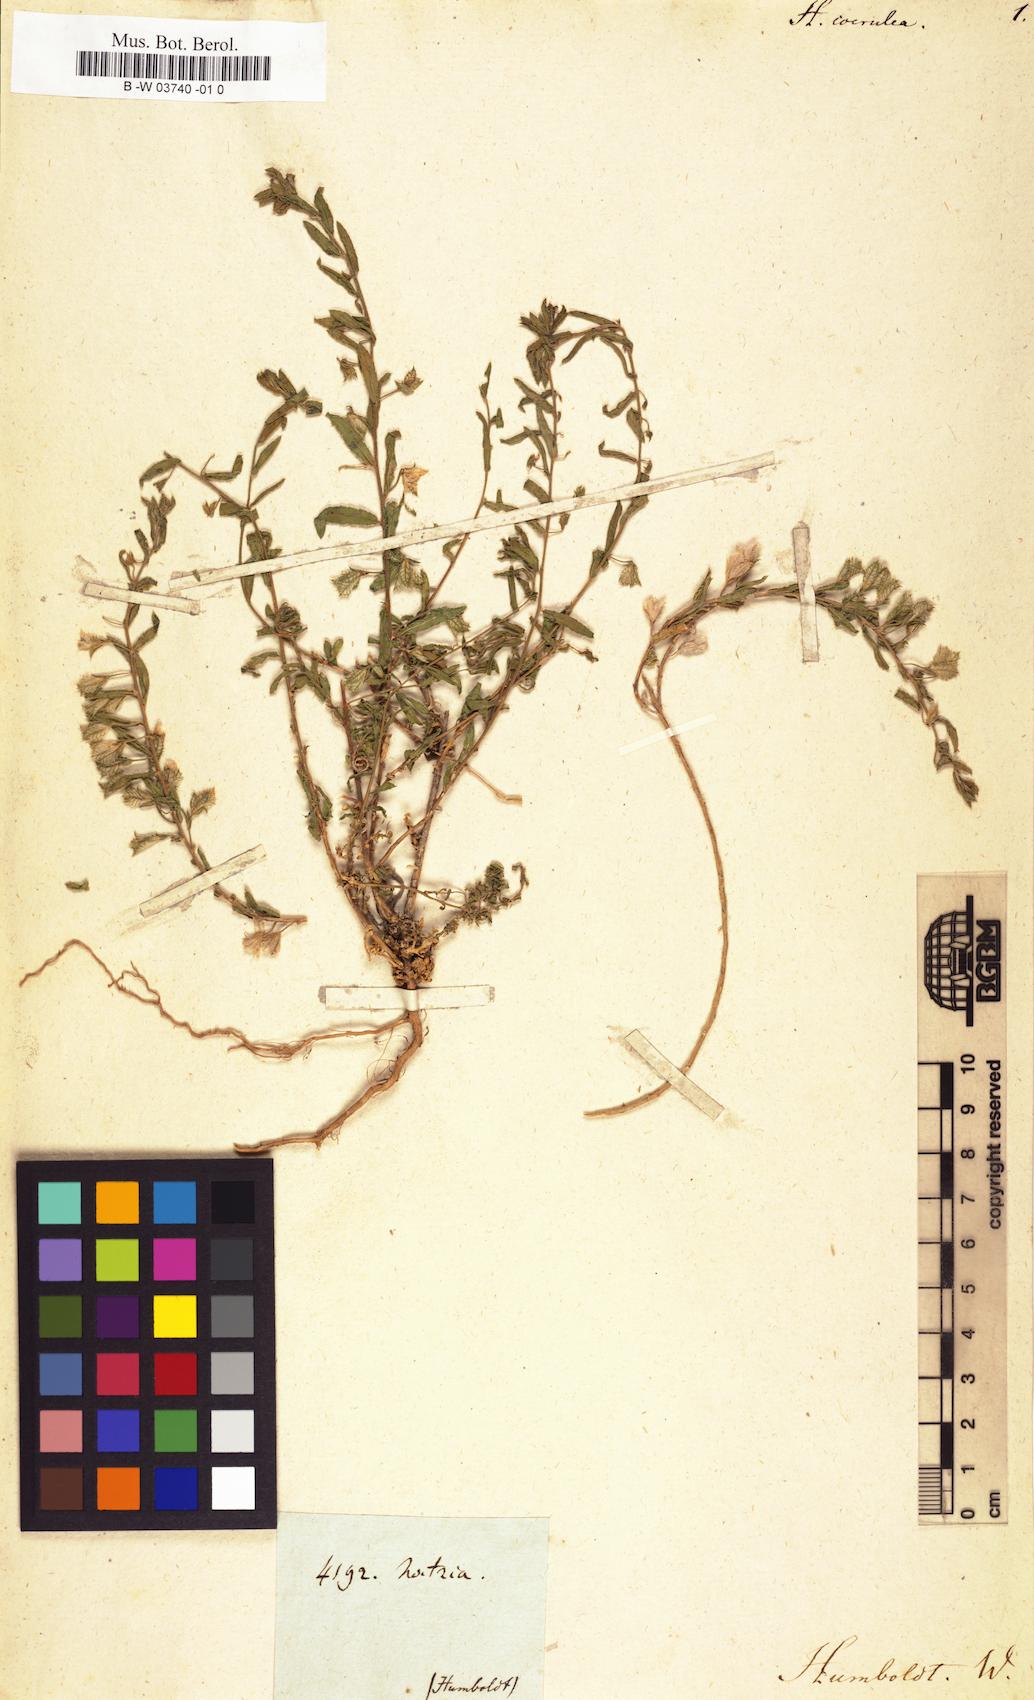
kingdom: Plantae
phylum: Tracheophyta
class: Magnoliopsida
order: Ericales
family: Polemoniaceae
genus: Loeselia
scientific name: Loeselia coerulea
